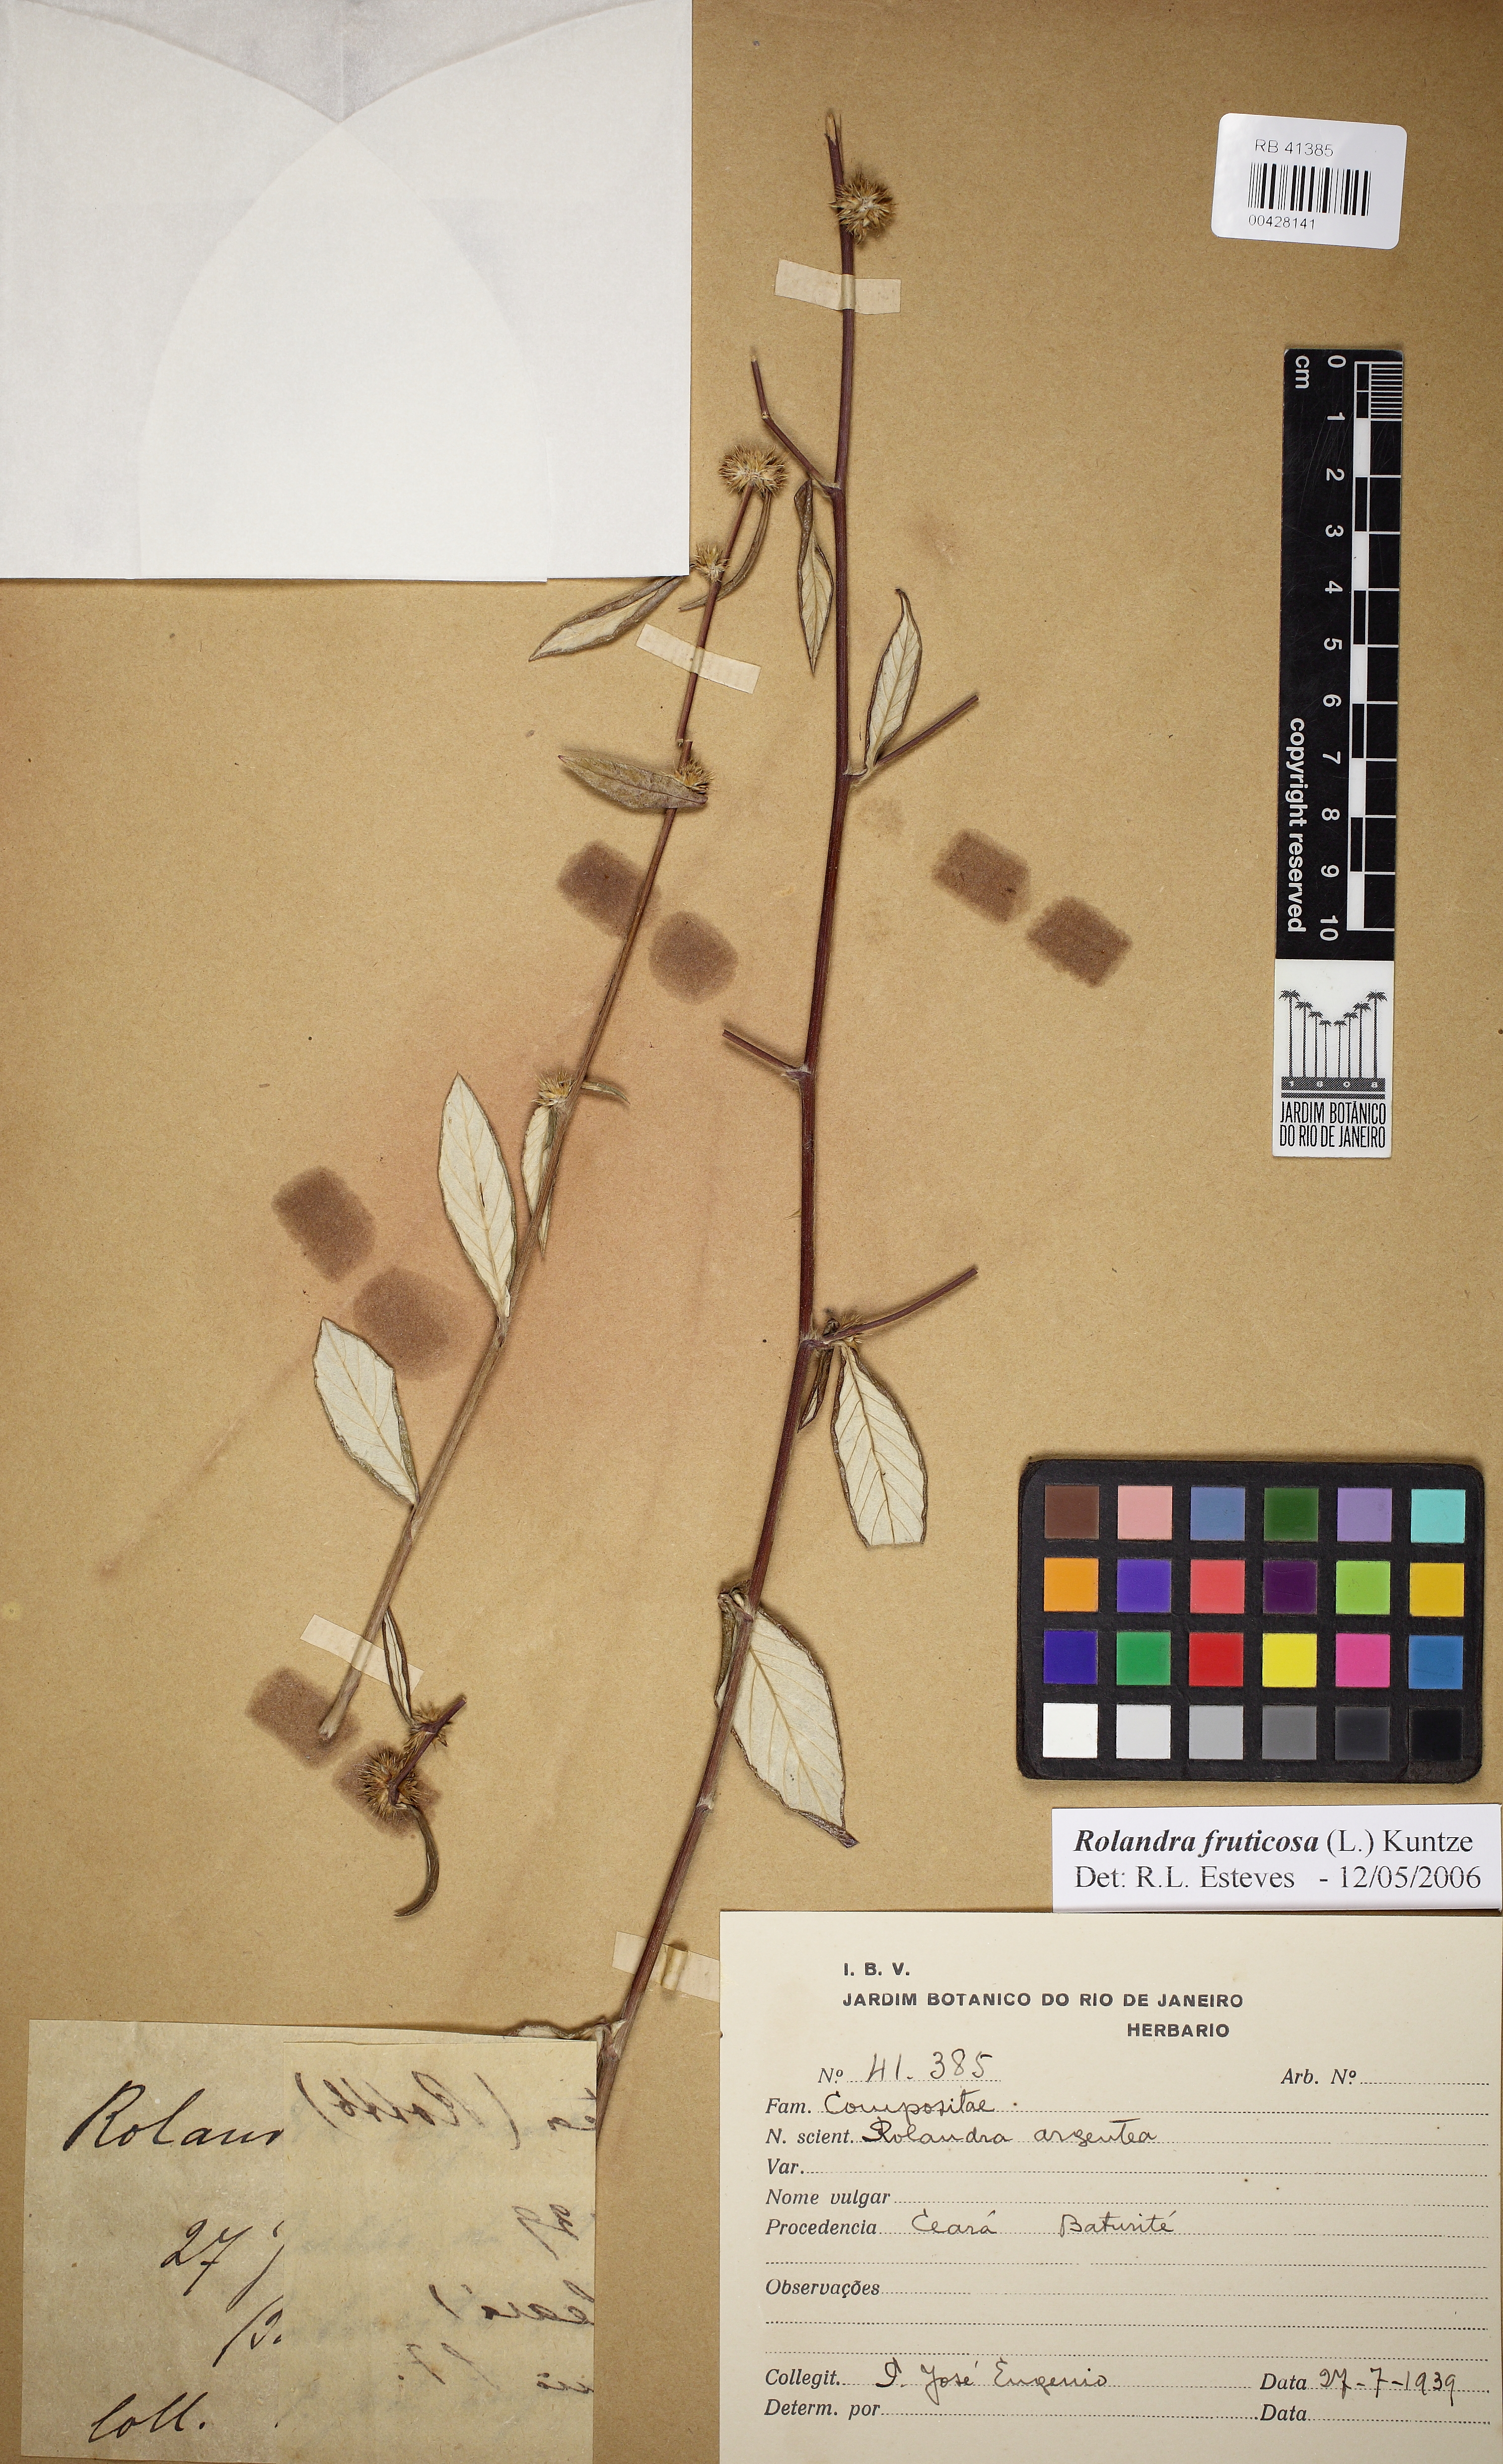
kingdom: Plantae
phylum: Tracheophyta
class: Magnoliopsida
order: Asterales
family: Asteraceae
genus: Rolandra
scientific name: Rolandra fruticosa
